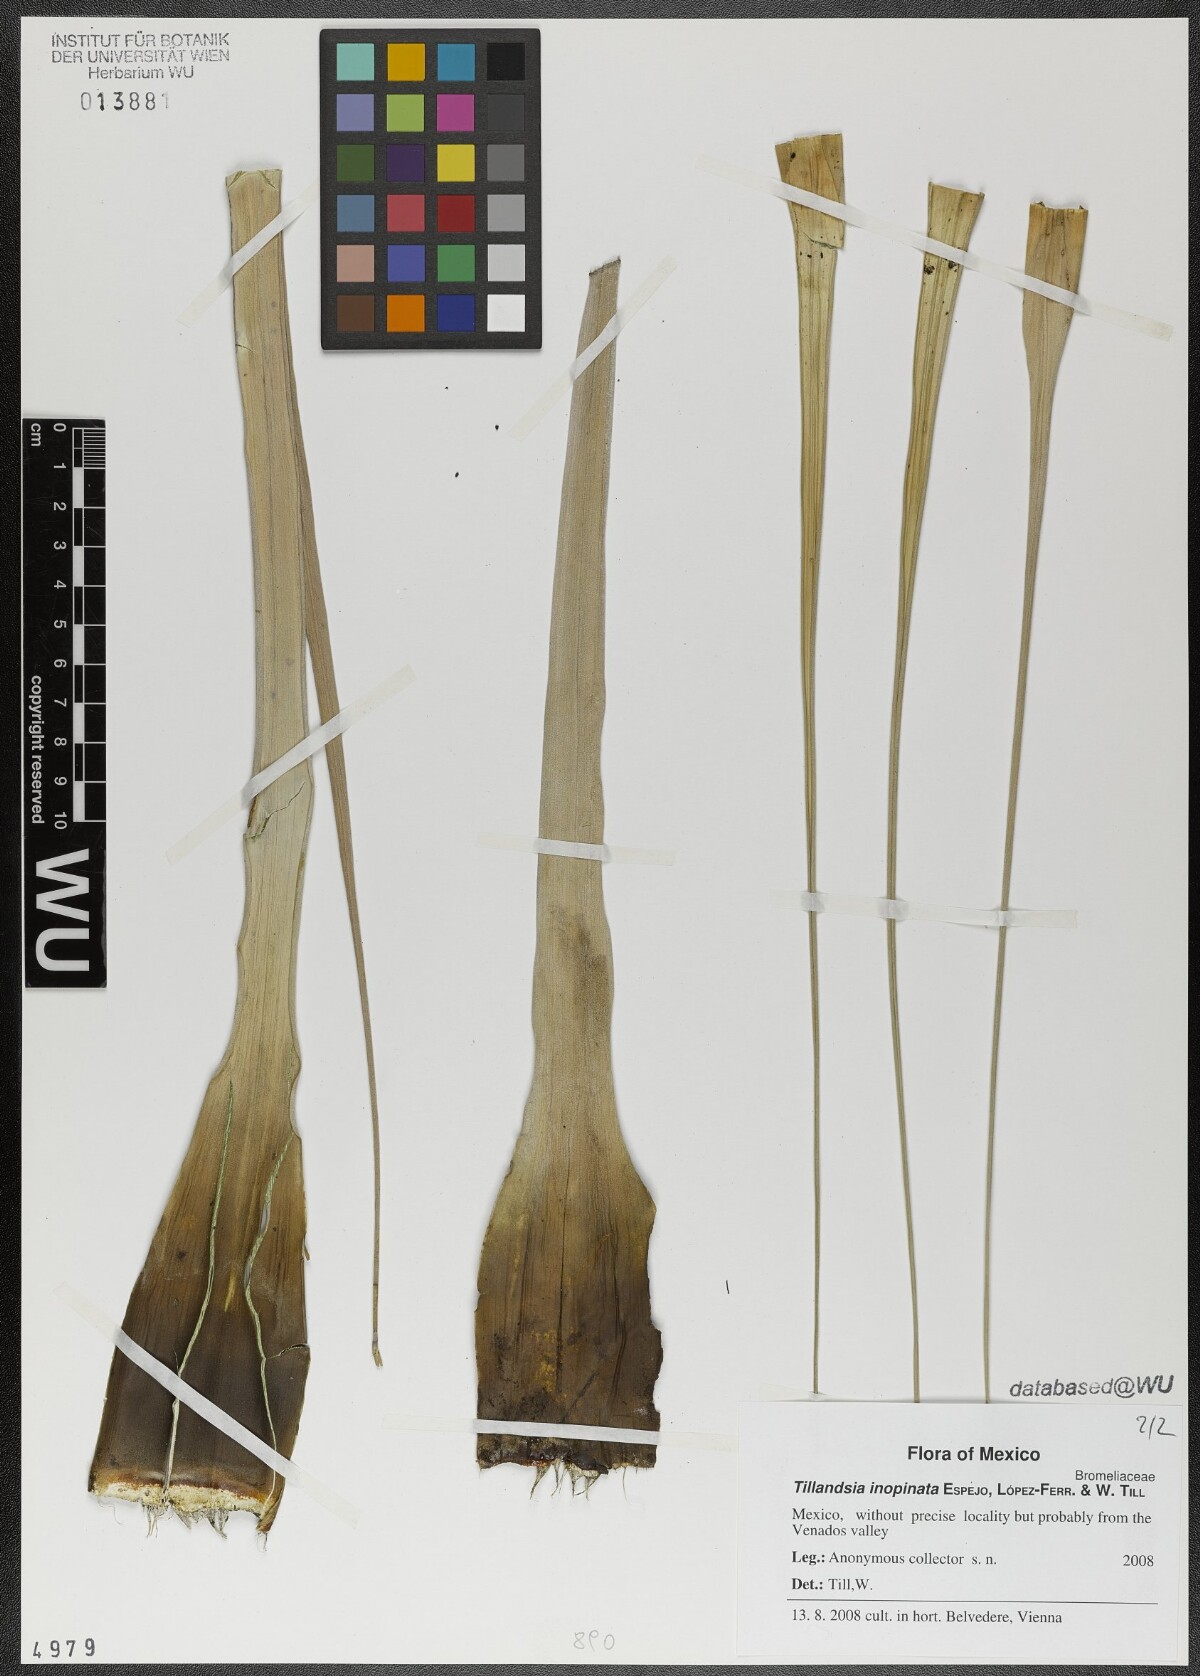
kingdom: Plantae
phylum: Tracheophyta
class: Liliopsida
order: Poales
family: Bromeliaceae
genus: Tillandsia
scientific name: Tillandsia inopinata
